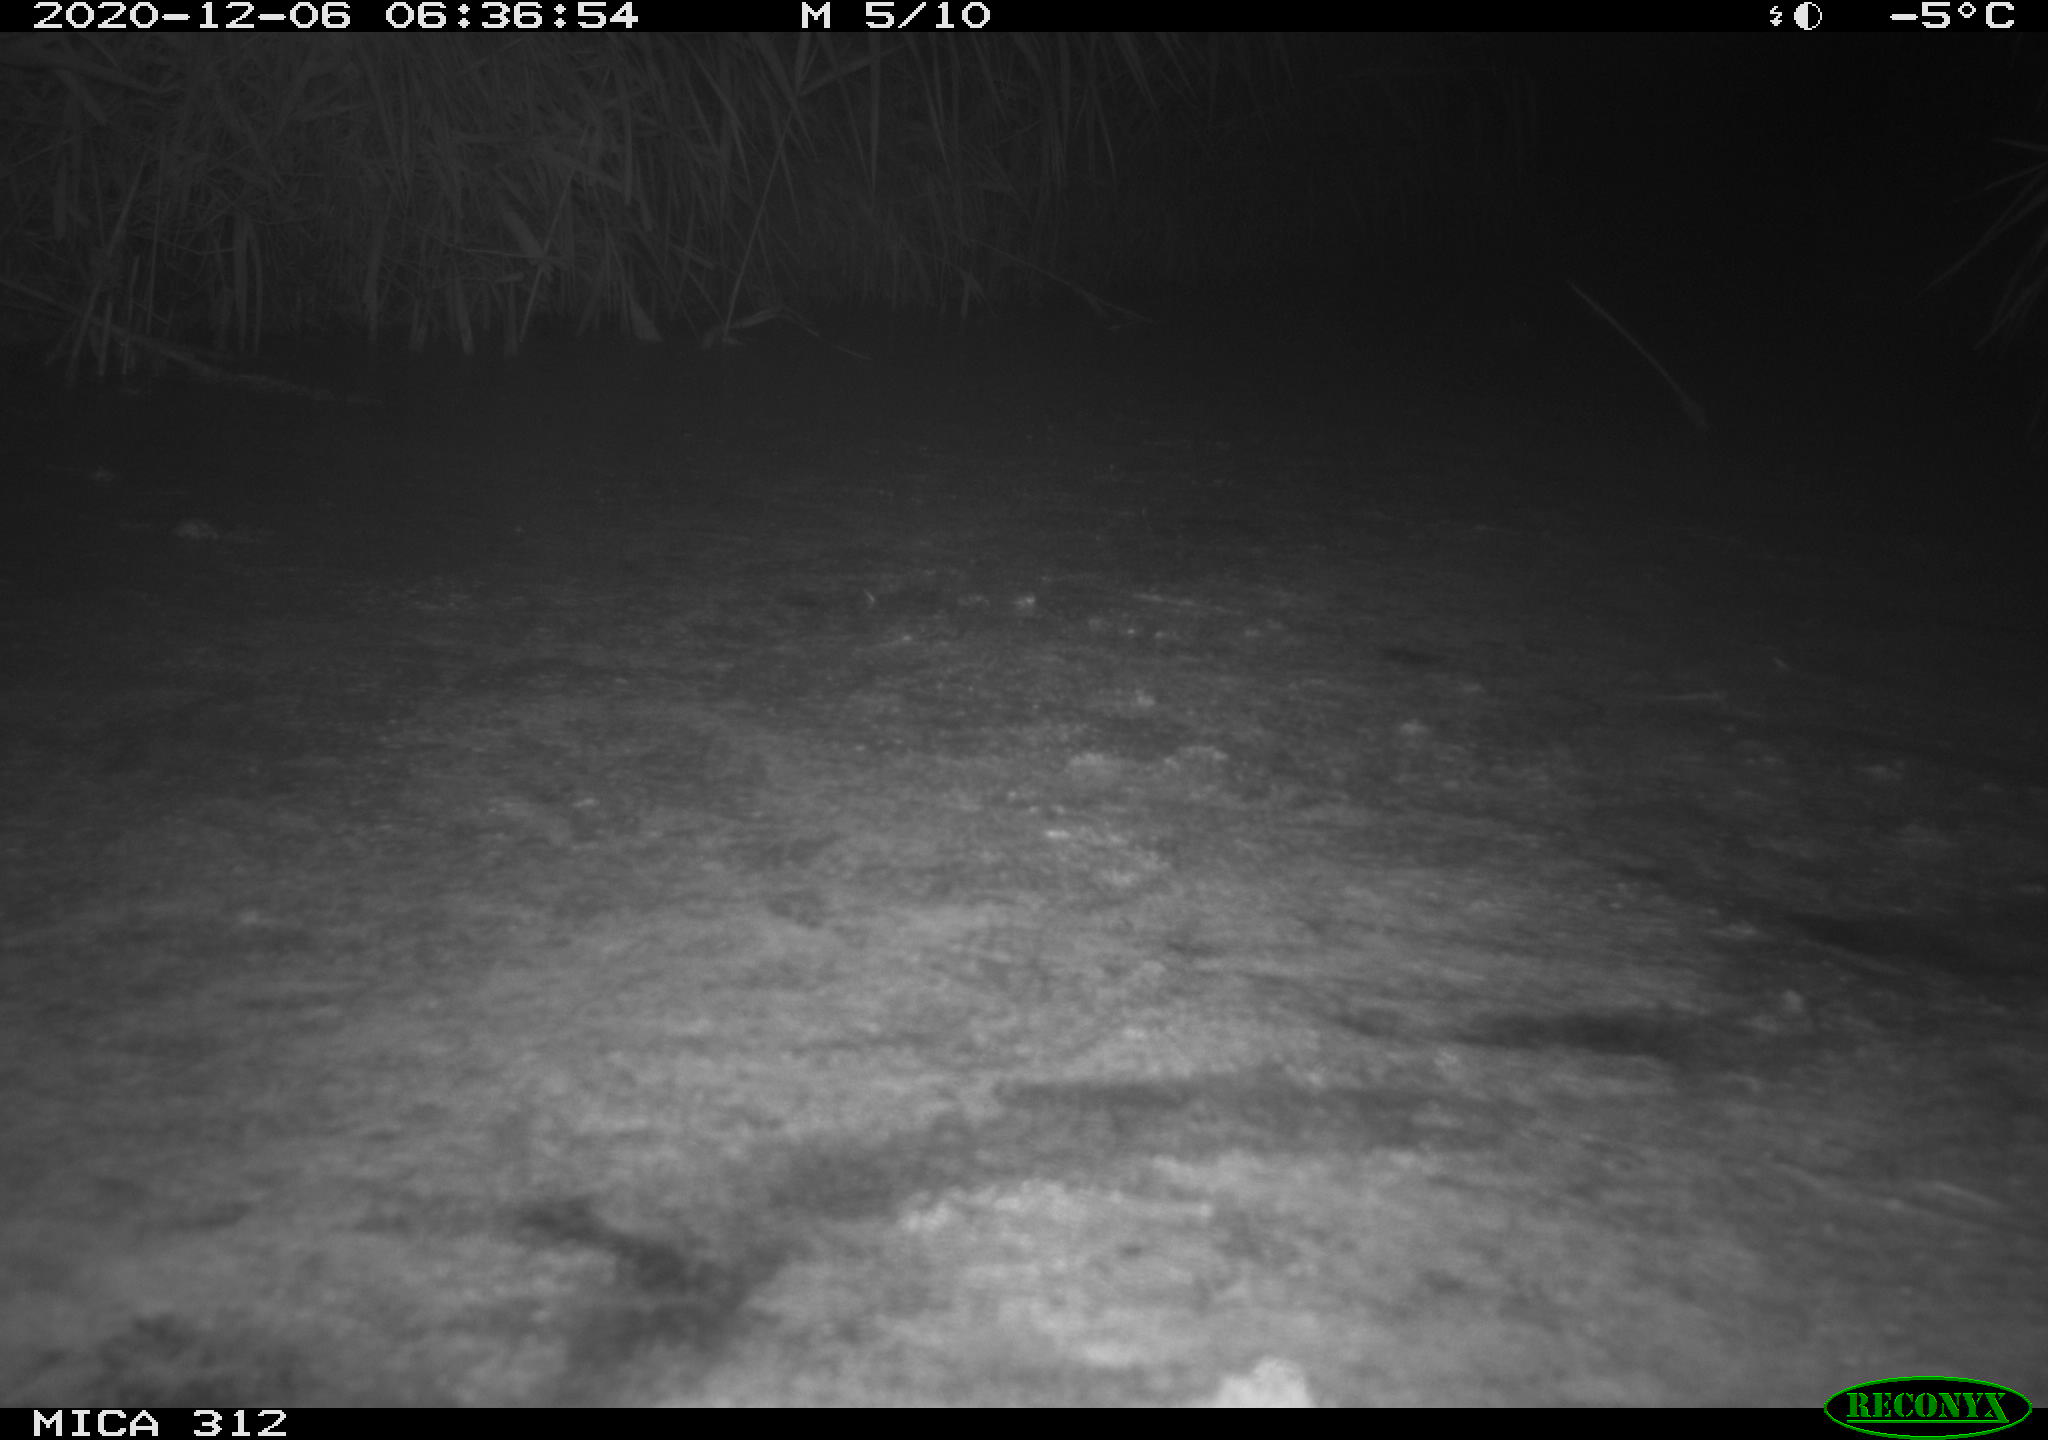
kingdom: Animalia
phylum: Chordata
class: Mammalia
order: Rodentia
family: Muridae
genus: Rattus
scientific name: Rattus norvegicus
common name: Brown rat
